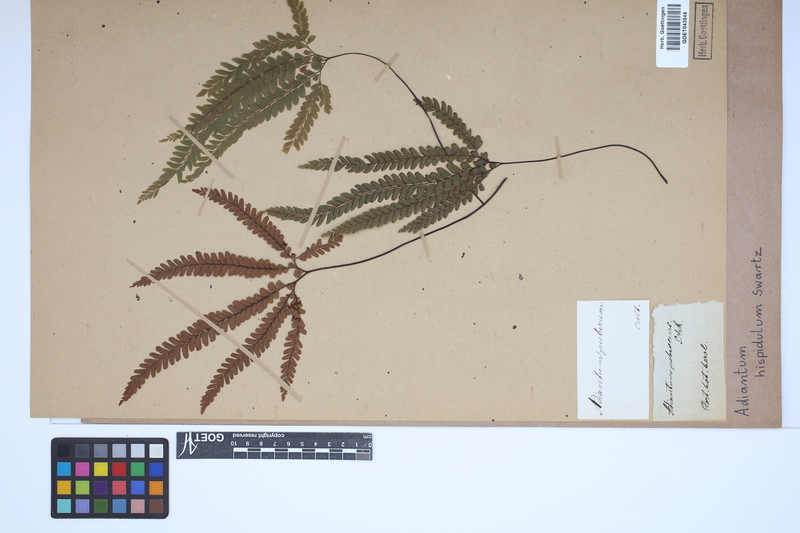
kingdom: Plantae
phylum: Tracheophyta
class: Polypodiopsida
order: Polypodiales
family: Pteridaceae
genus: Adiantum
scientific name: Adiantum hispidulum
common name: Rough maidenhair
